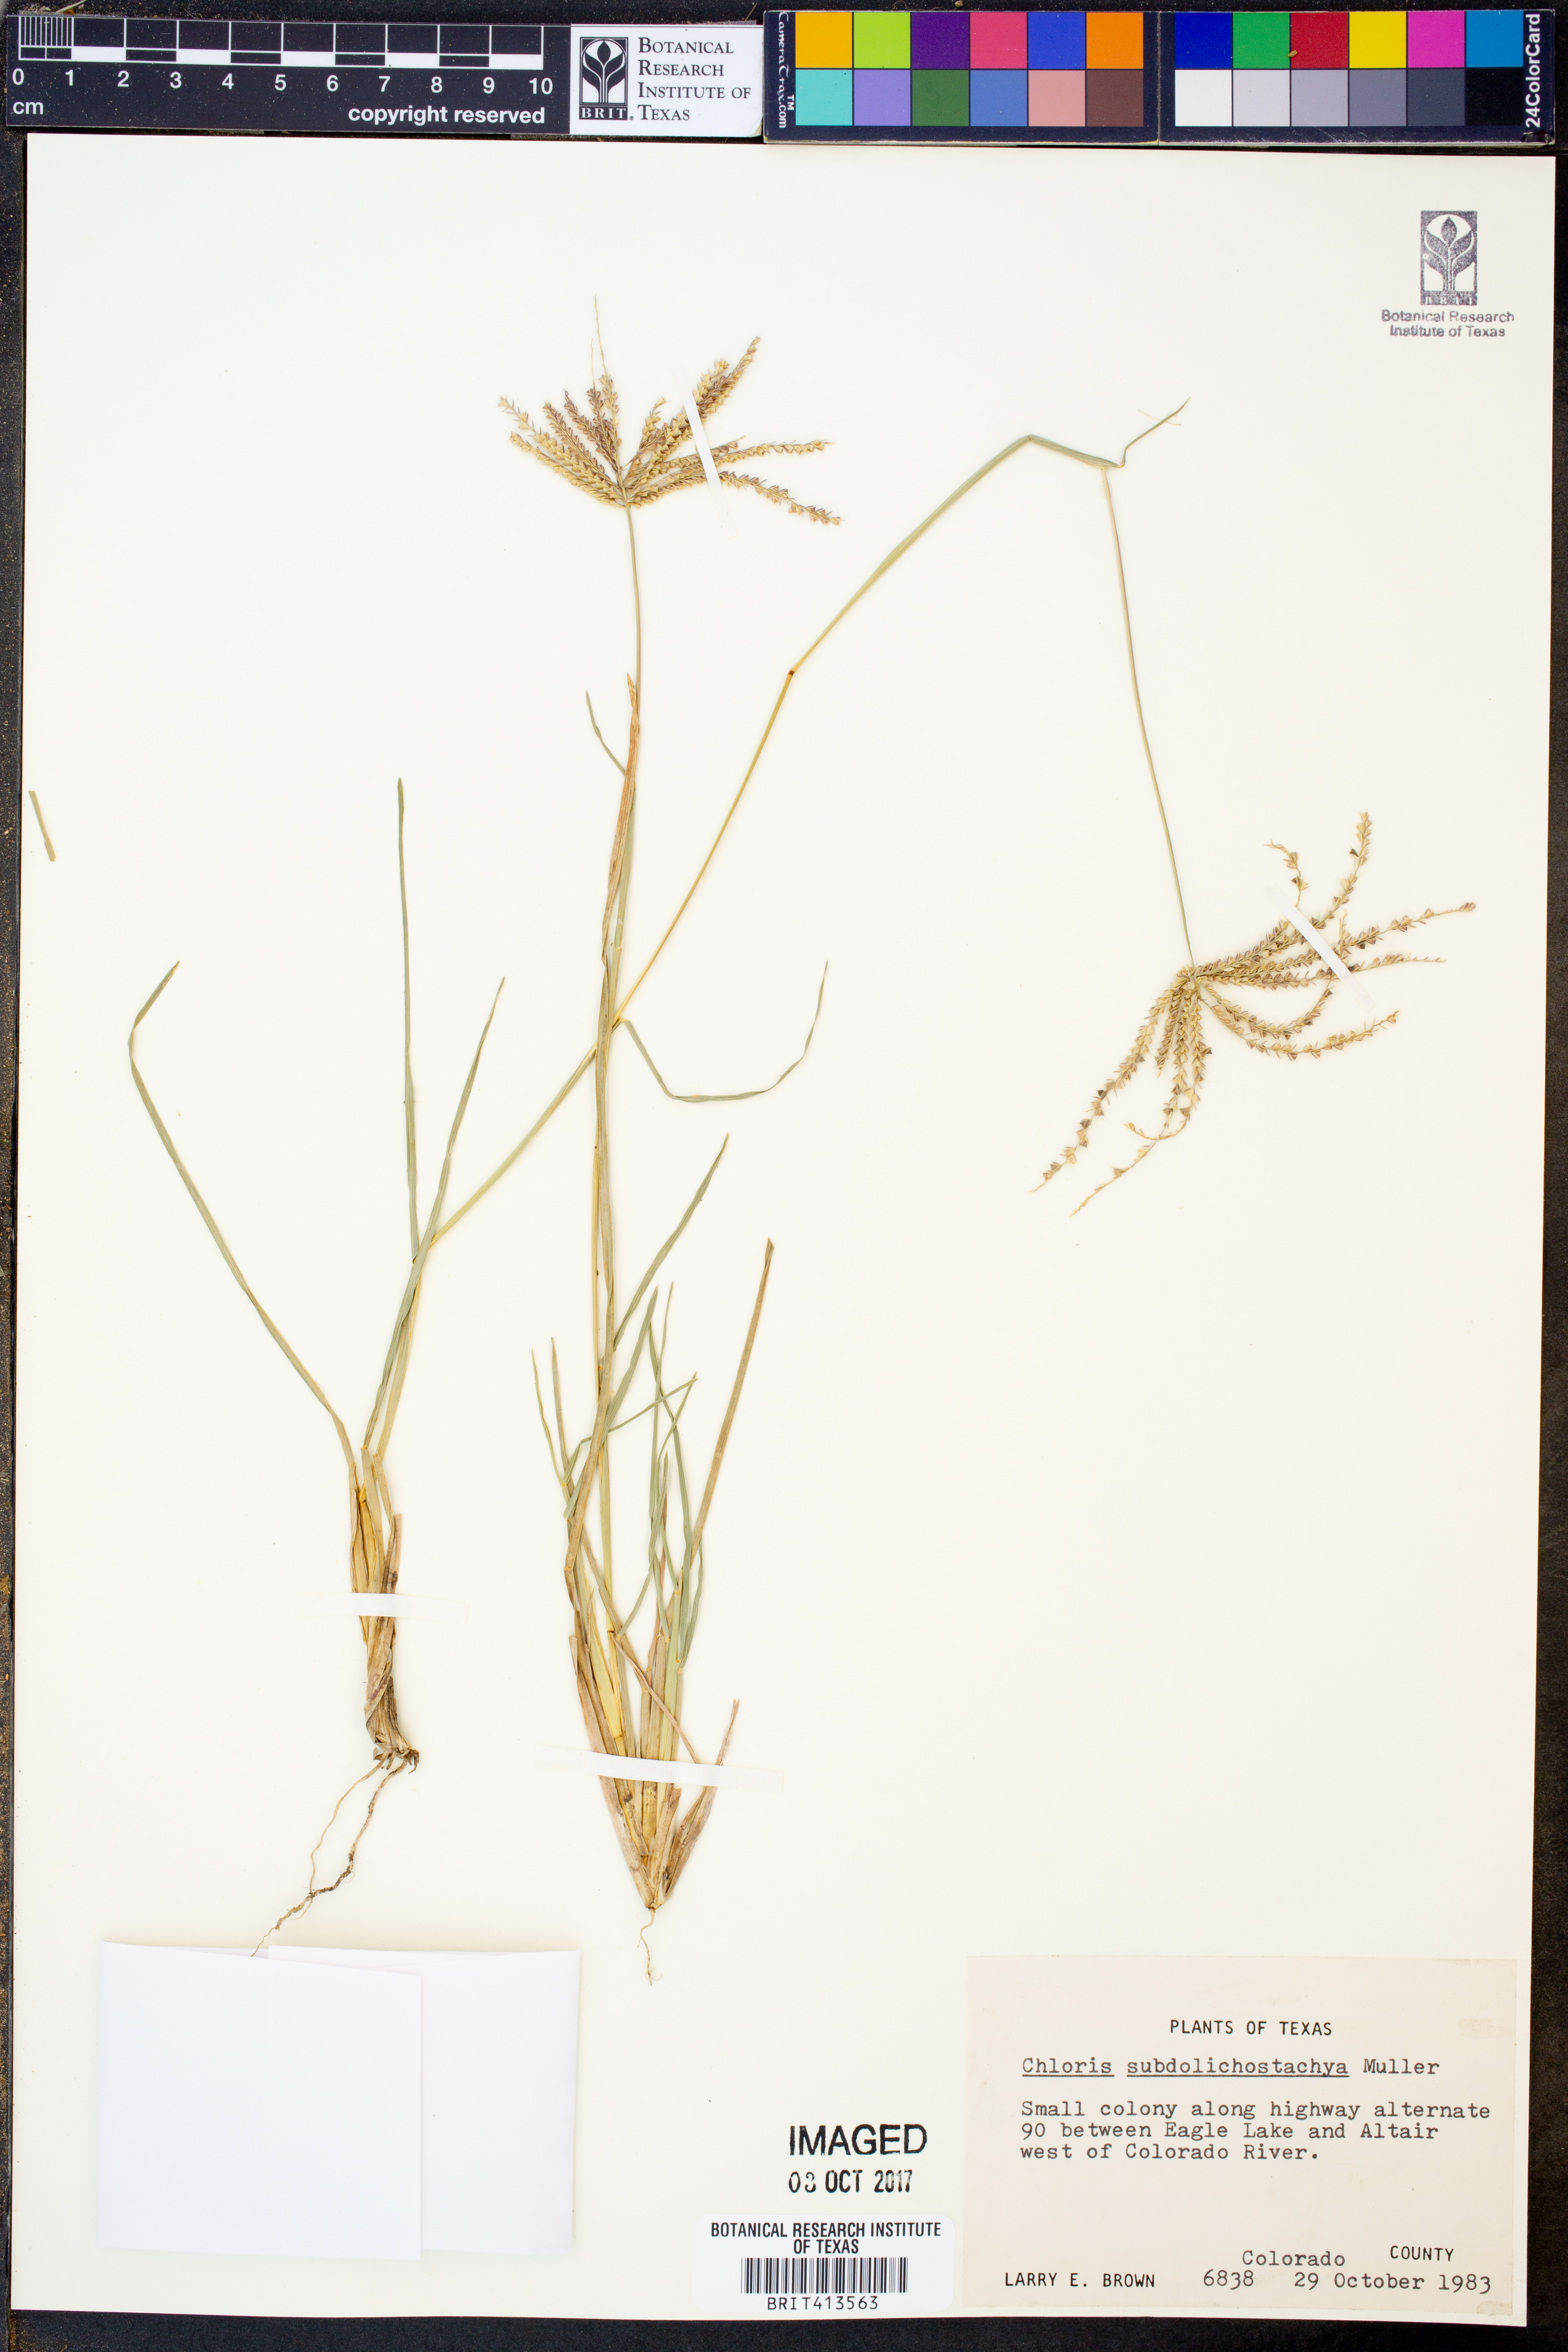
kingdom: Plantae
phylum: Tracheophyta
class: Liliopsida
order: Poales
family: Poaceae
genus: Chloris
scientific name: Chloris subdolichostachya
